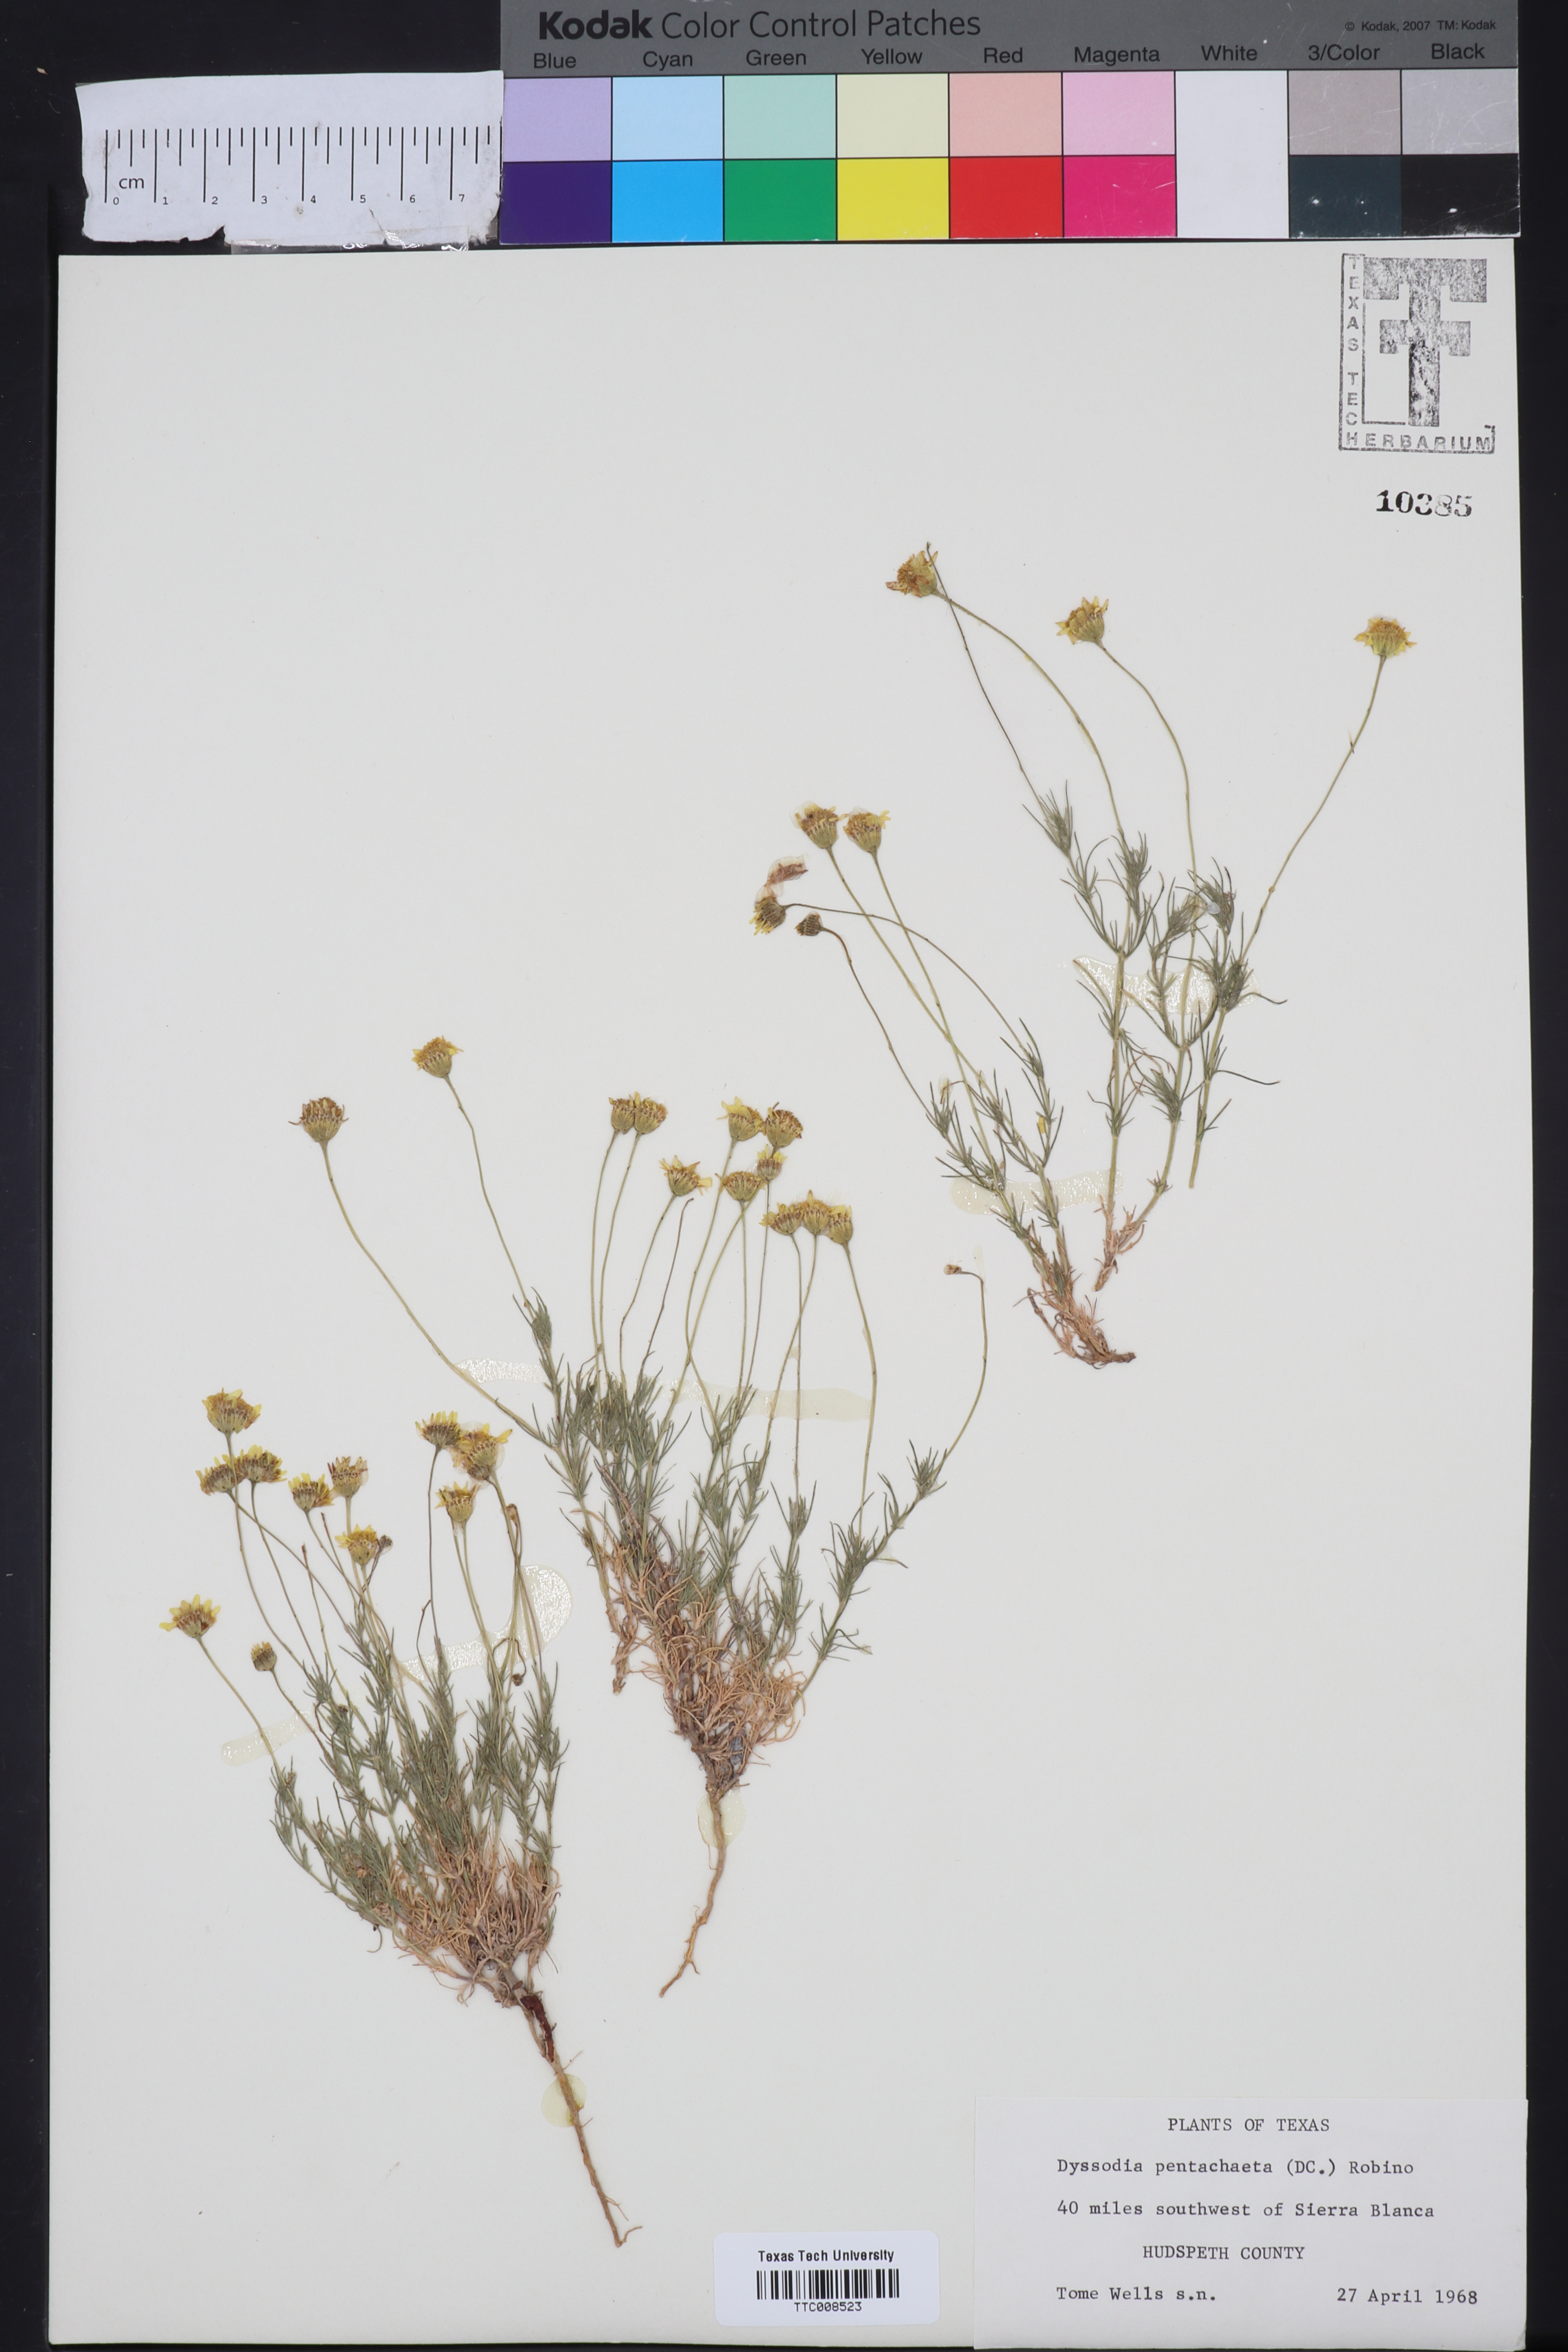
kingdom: Plantae
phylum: Tracheophyta
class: Magnoliopsida
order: Asterales
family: Asteraceae
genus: Thymophylla
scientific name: Thymophylla pentachaeta
